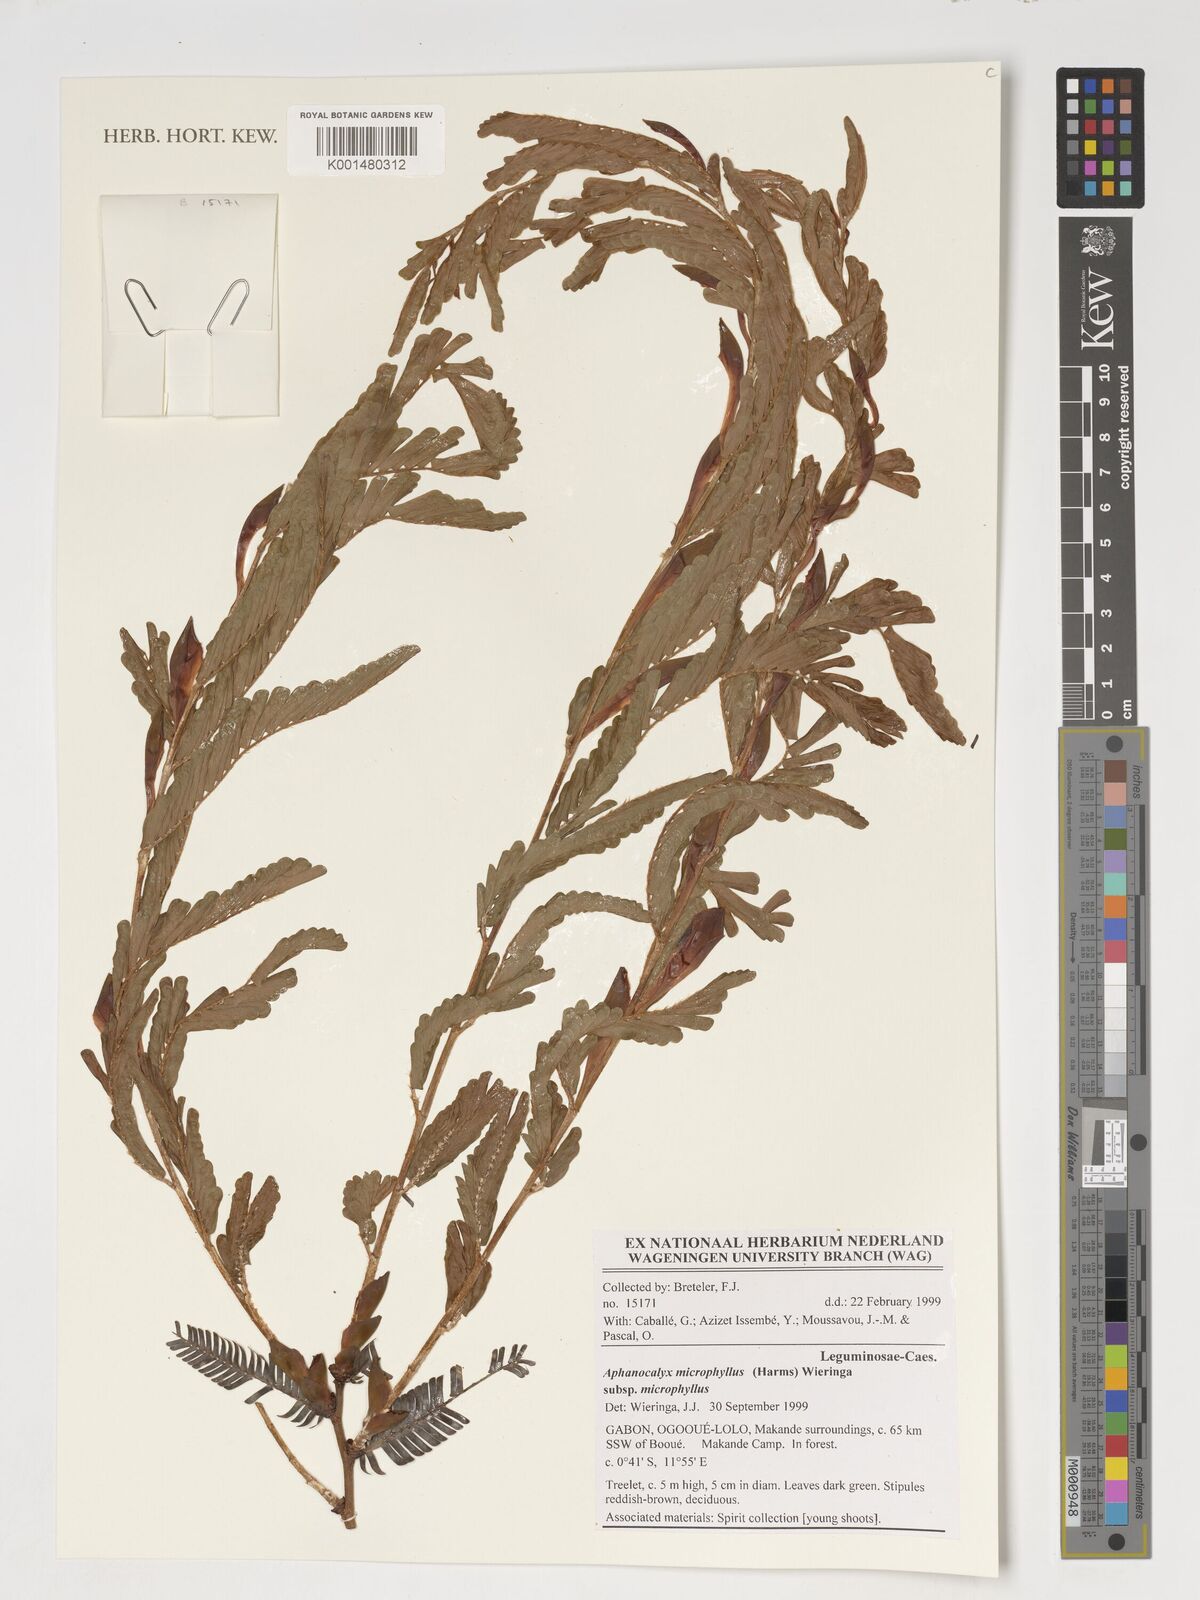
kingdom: Plantae
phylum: Tracheophyta
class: Magnoliopsida
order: Fabales
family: Fabaceae
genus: Aphanocalyx
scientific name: Aphanocalyx microphyllus
